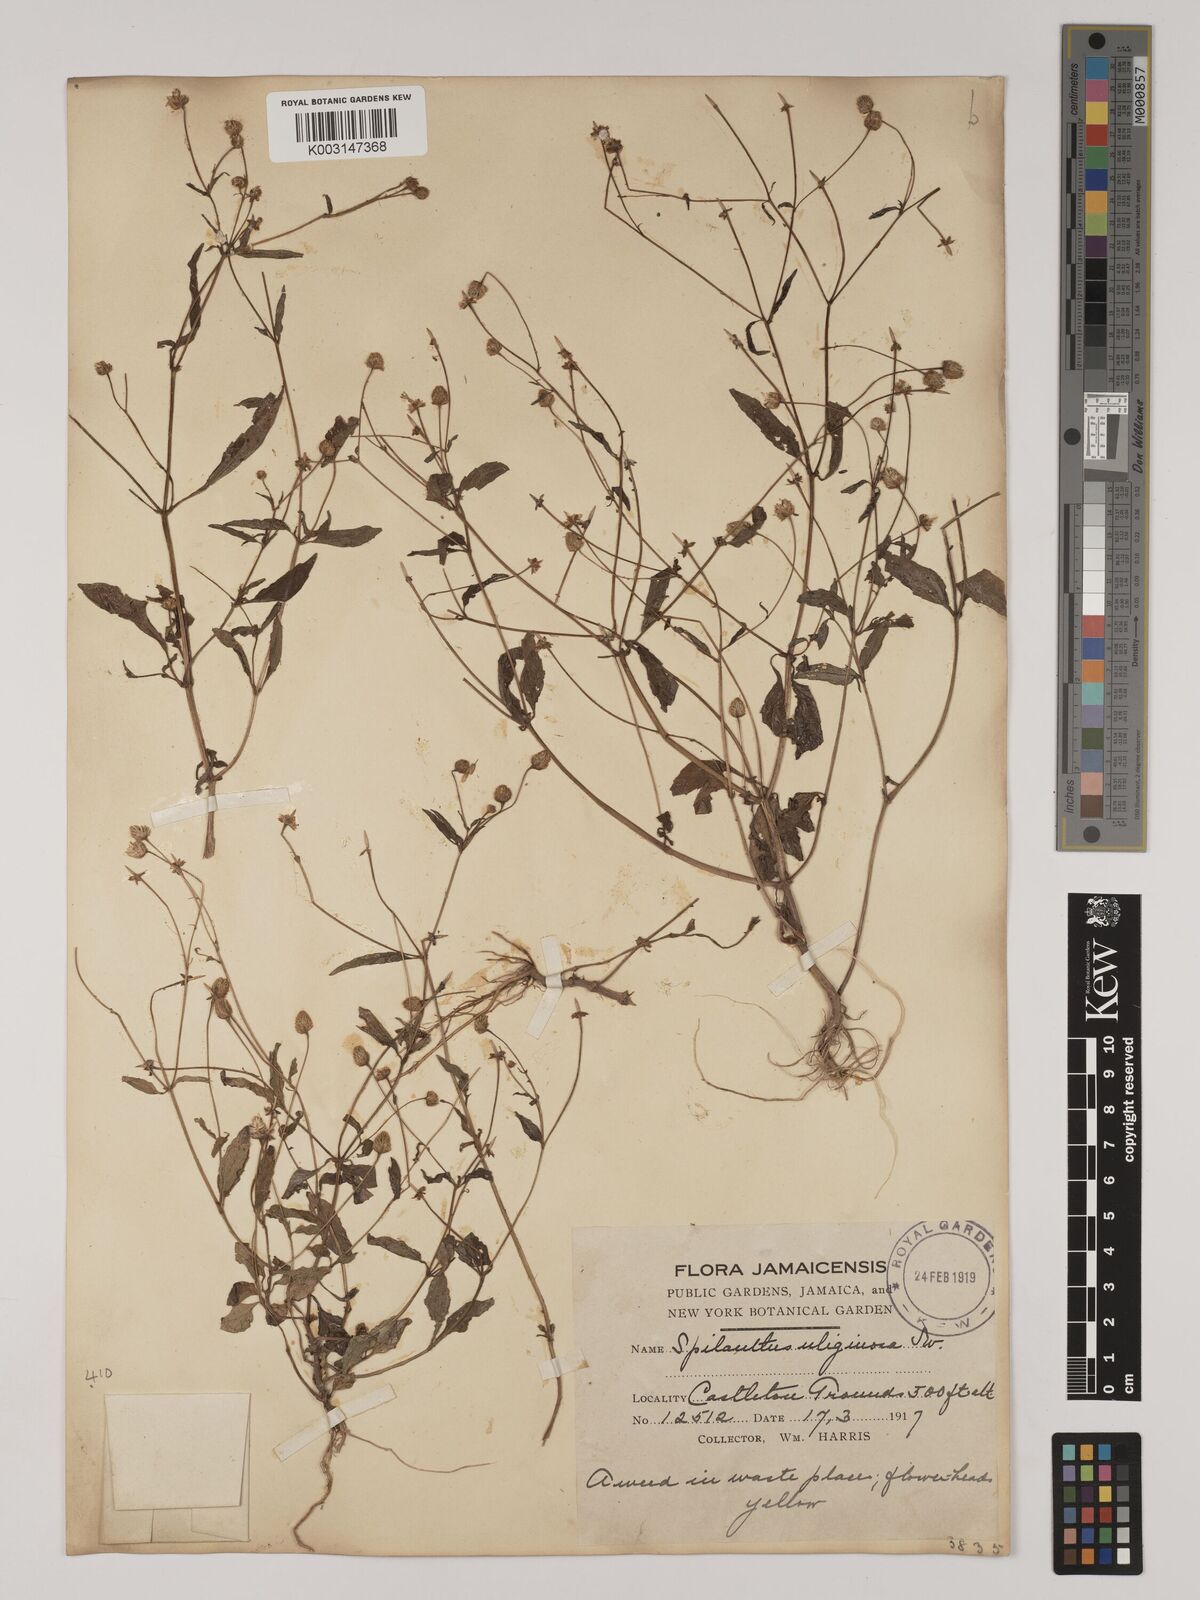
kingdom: Plantae
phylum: Tracheophyta
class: Magnoliopsida
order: Asterales
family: Asteraceae
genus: Acmella
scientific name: Acmella uliginosa
